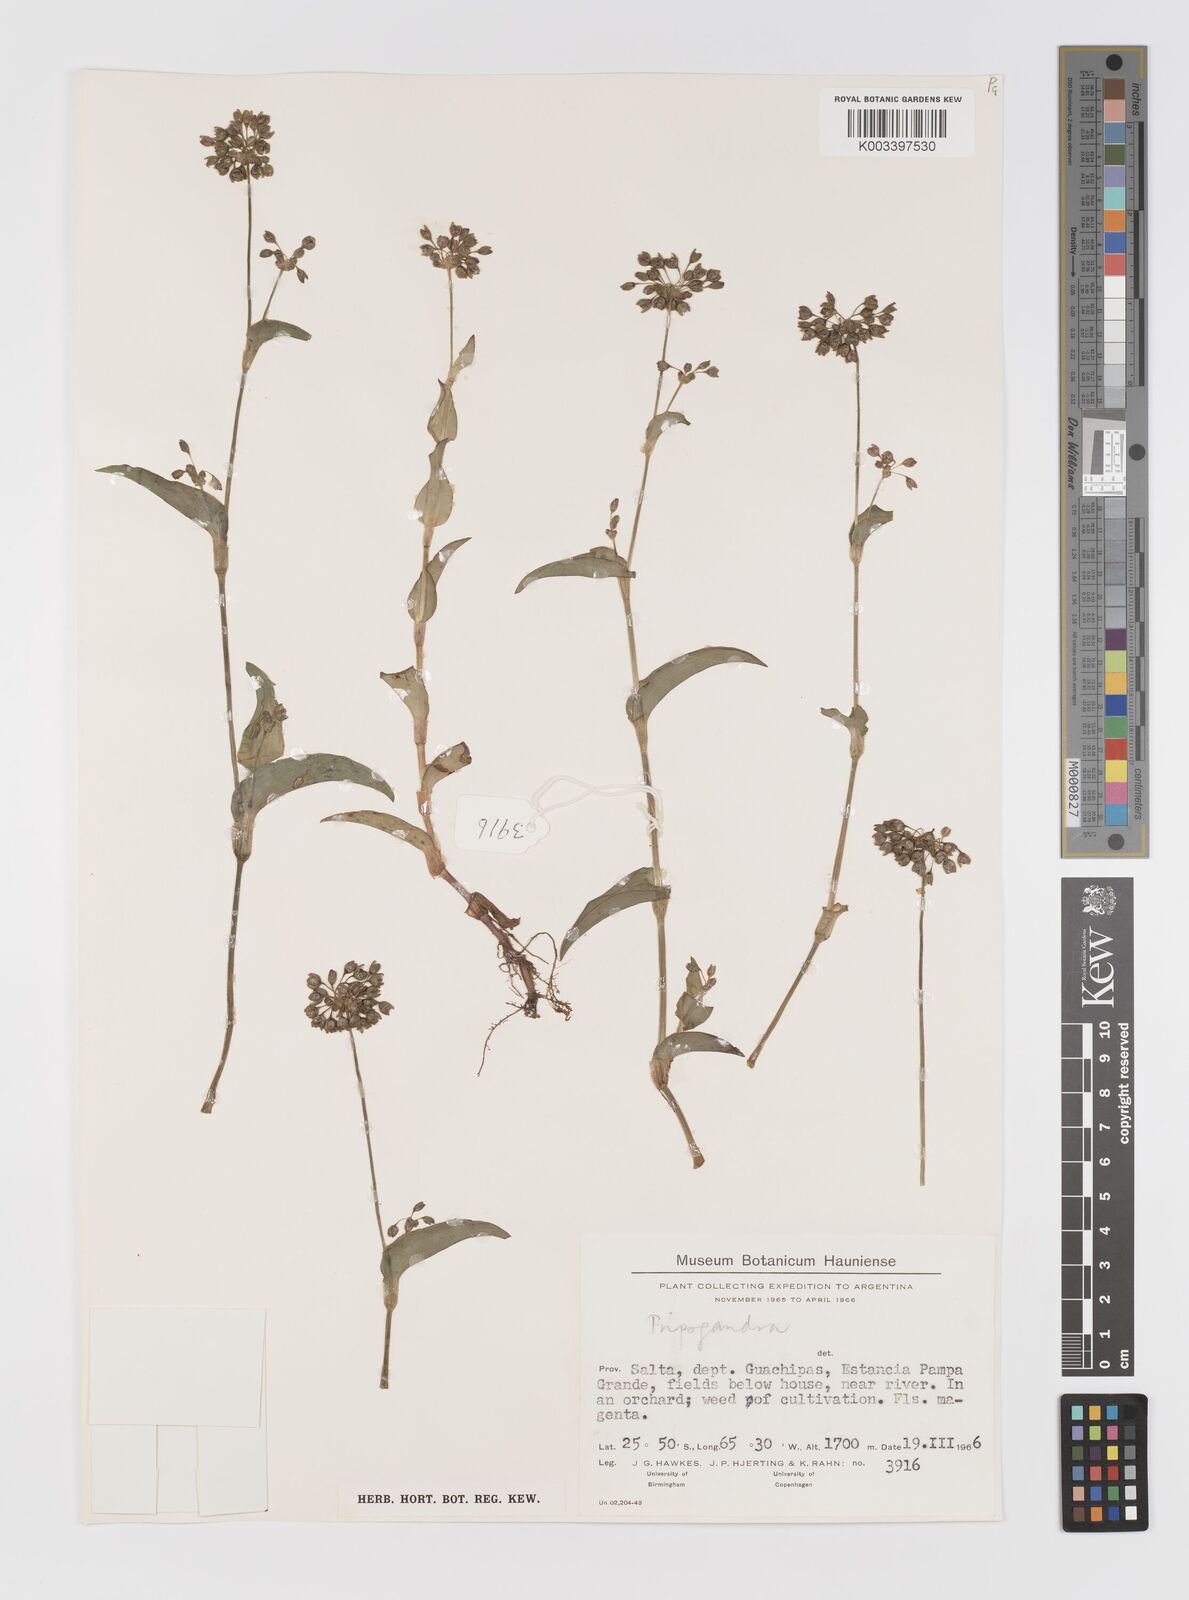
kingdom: Plantae
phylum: Tracheophyta
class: Liliopsida
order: Commelinales
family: Commelinaceae
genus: Callisia
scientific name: Callisia purpurascens
